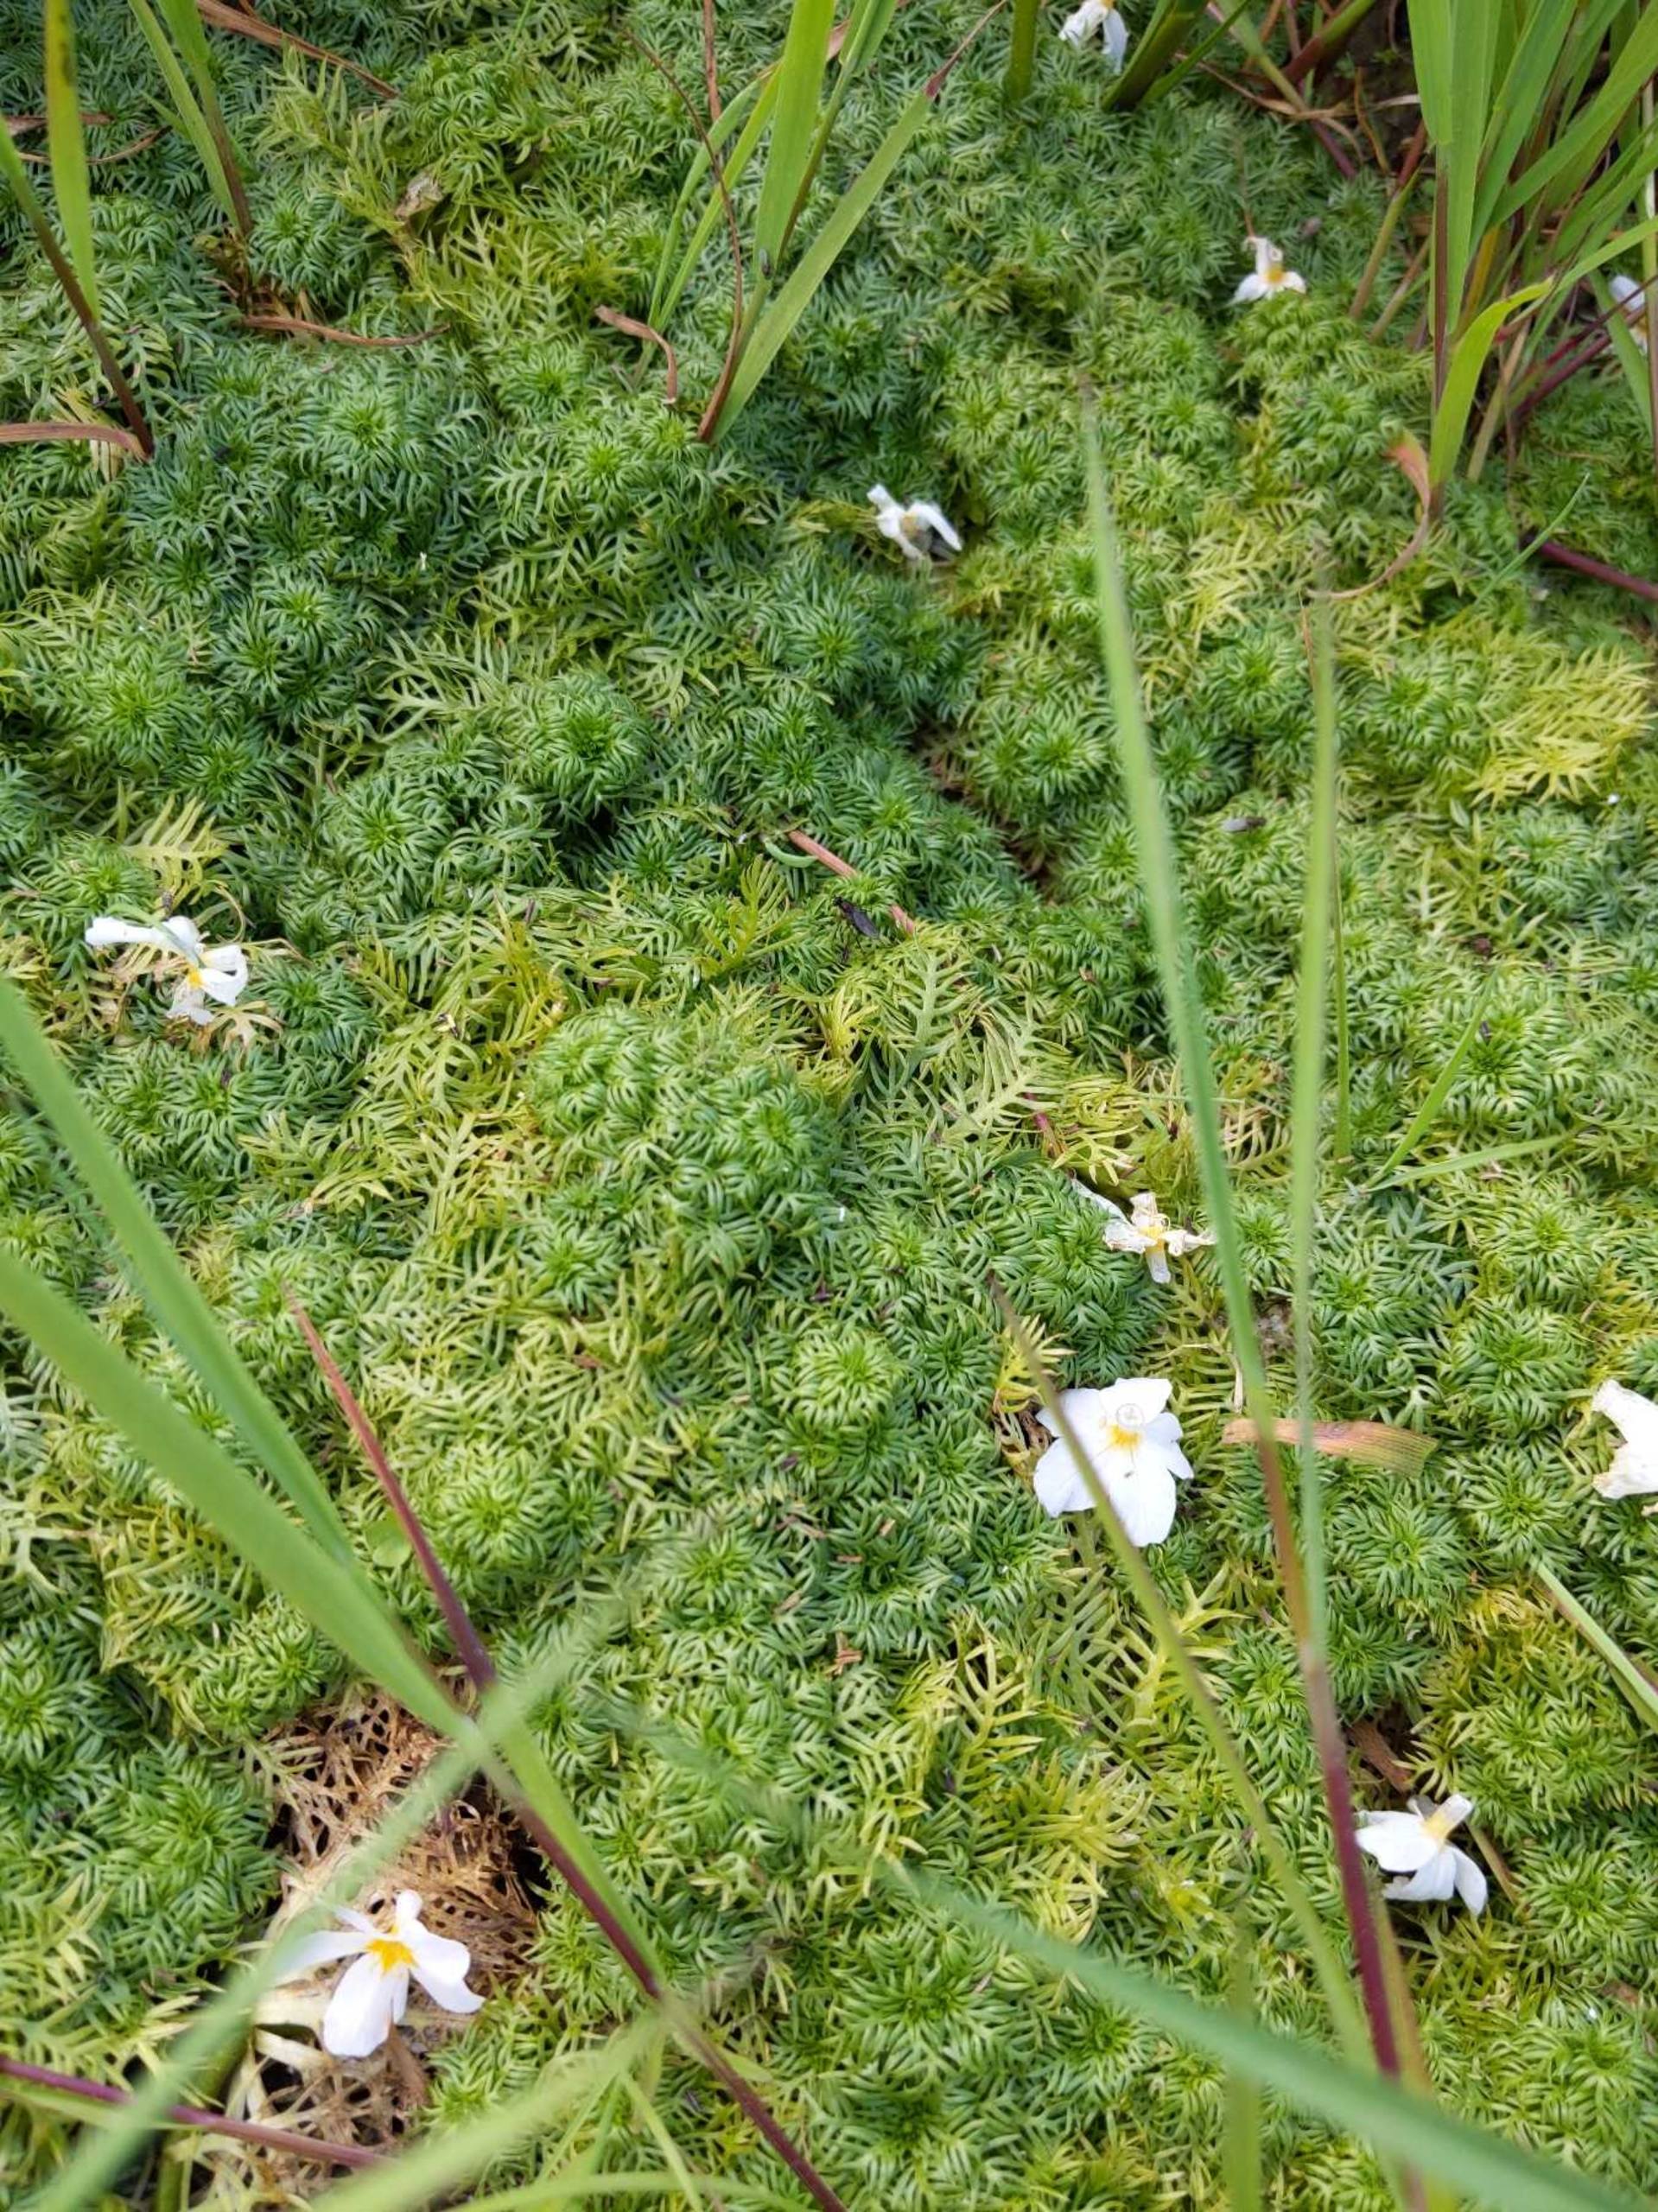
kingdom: Plantae
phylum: Tracheophyta
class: Magnoliopsida
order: Ericales
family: Primulaceae
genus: Hottonia
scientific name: Hottonia palustris
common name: Vandrøllike
